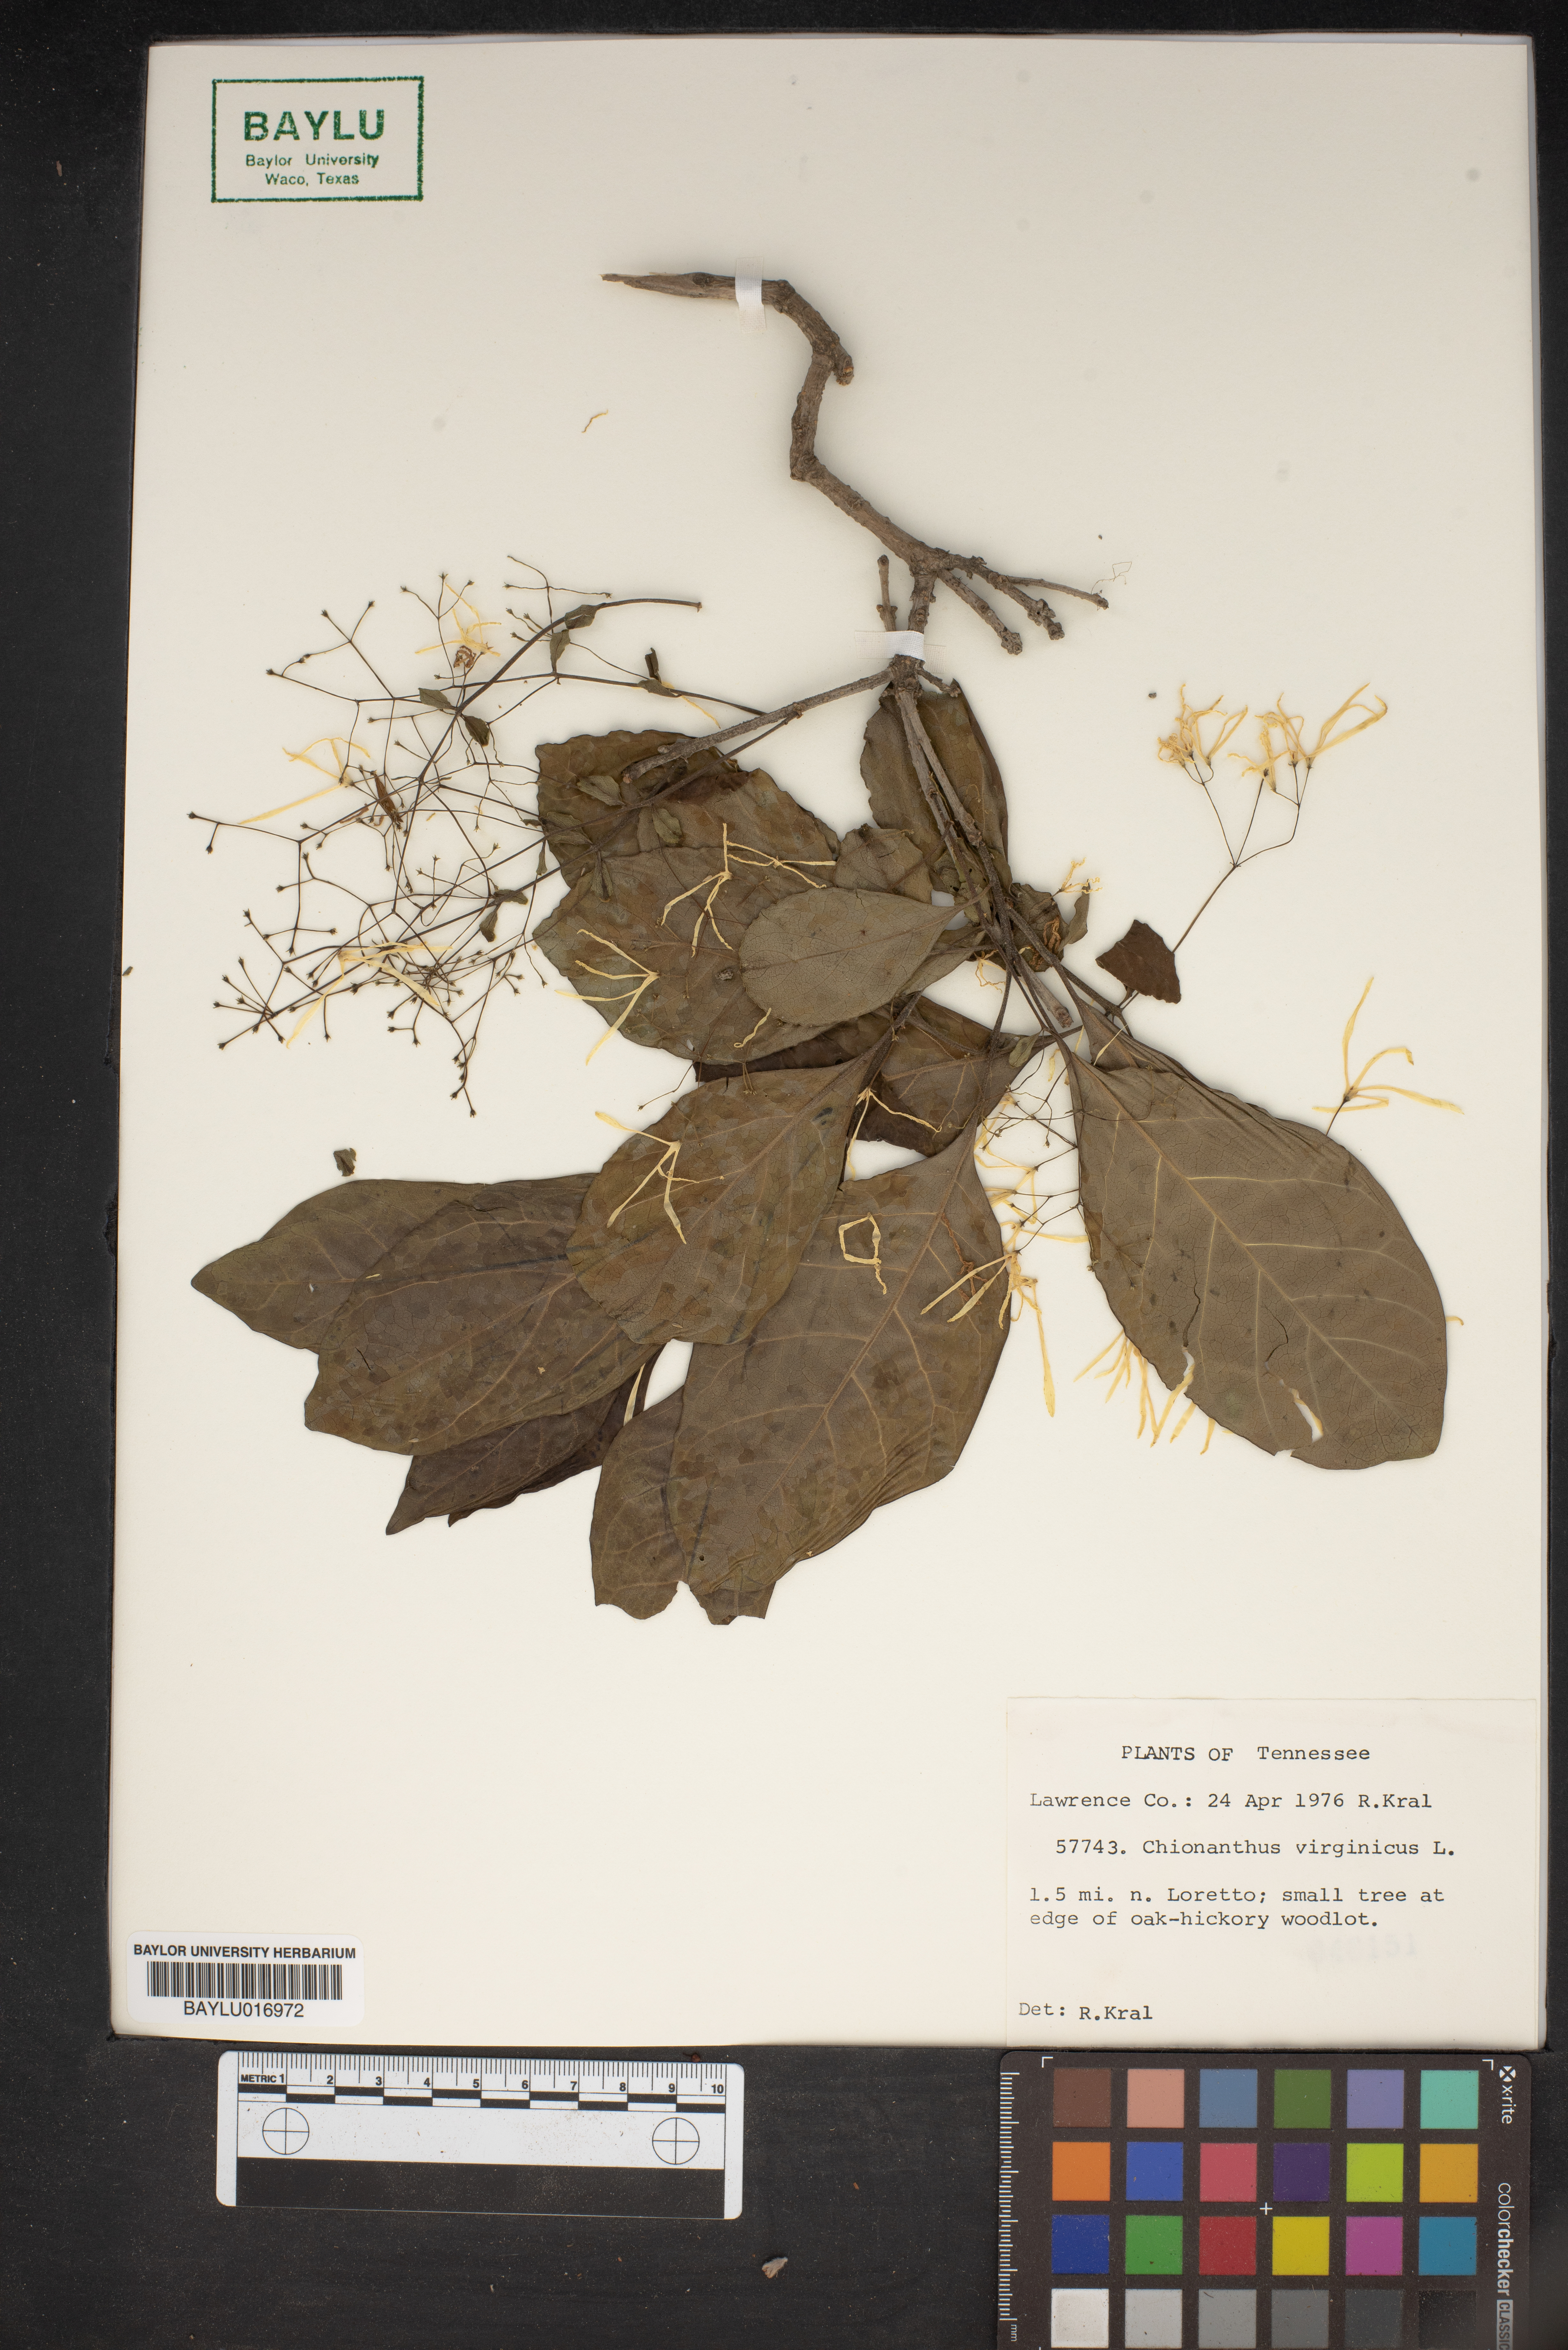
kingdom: Plantae
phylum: Tracheophyta
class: Magnoliopsida
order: Lamiales
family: Oleaceae
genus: Chionanthus
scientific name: Chionanthus virginicus
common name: American fringetree
